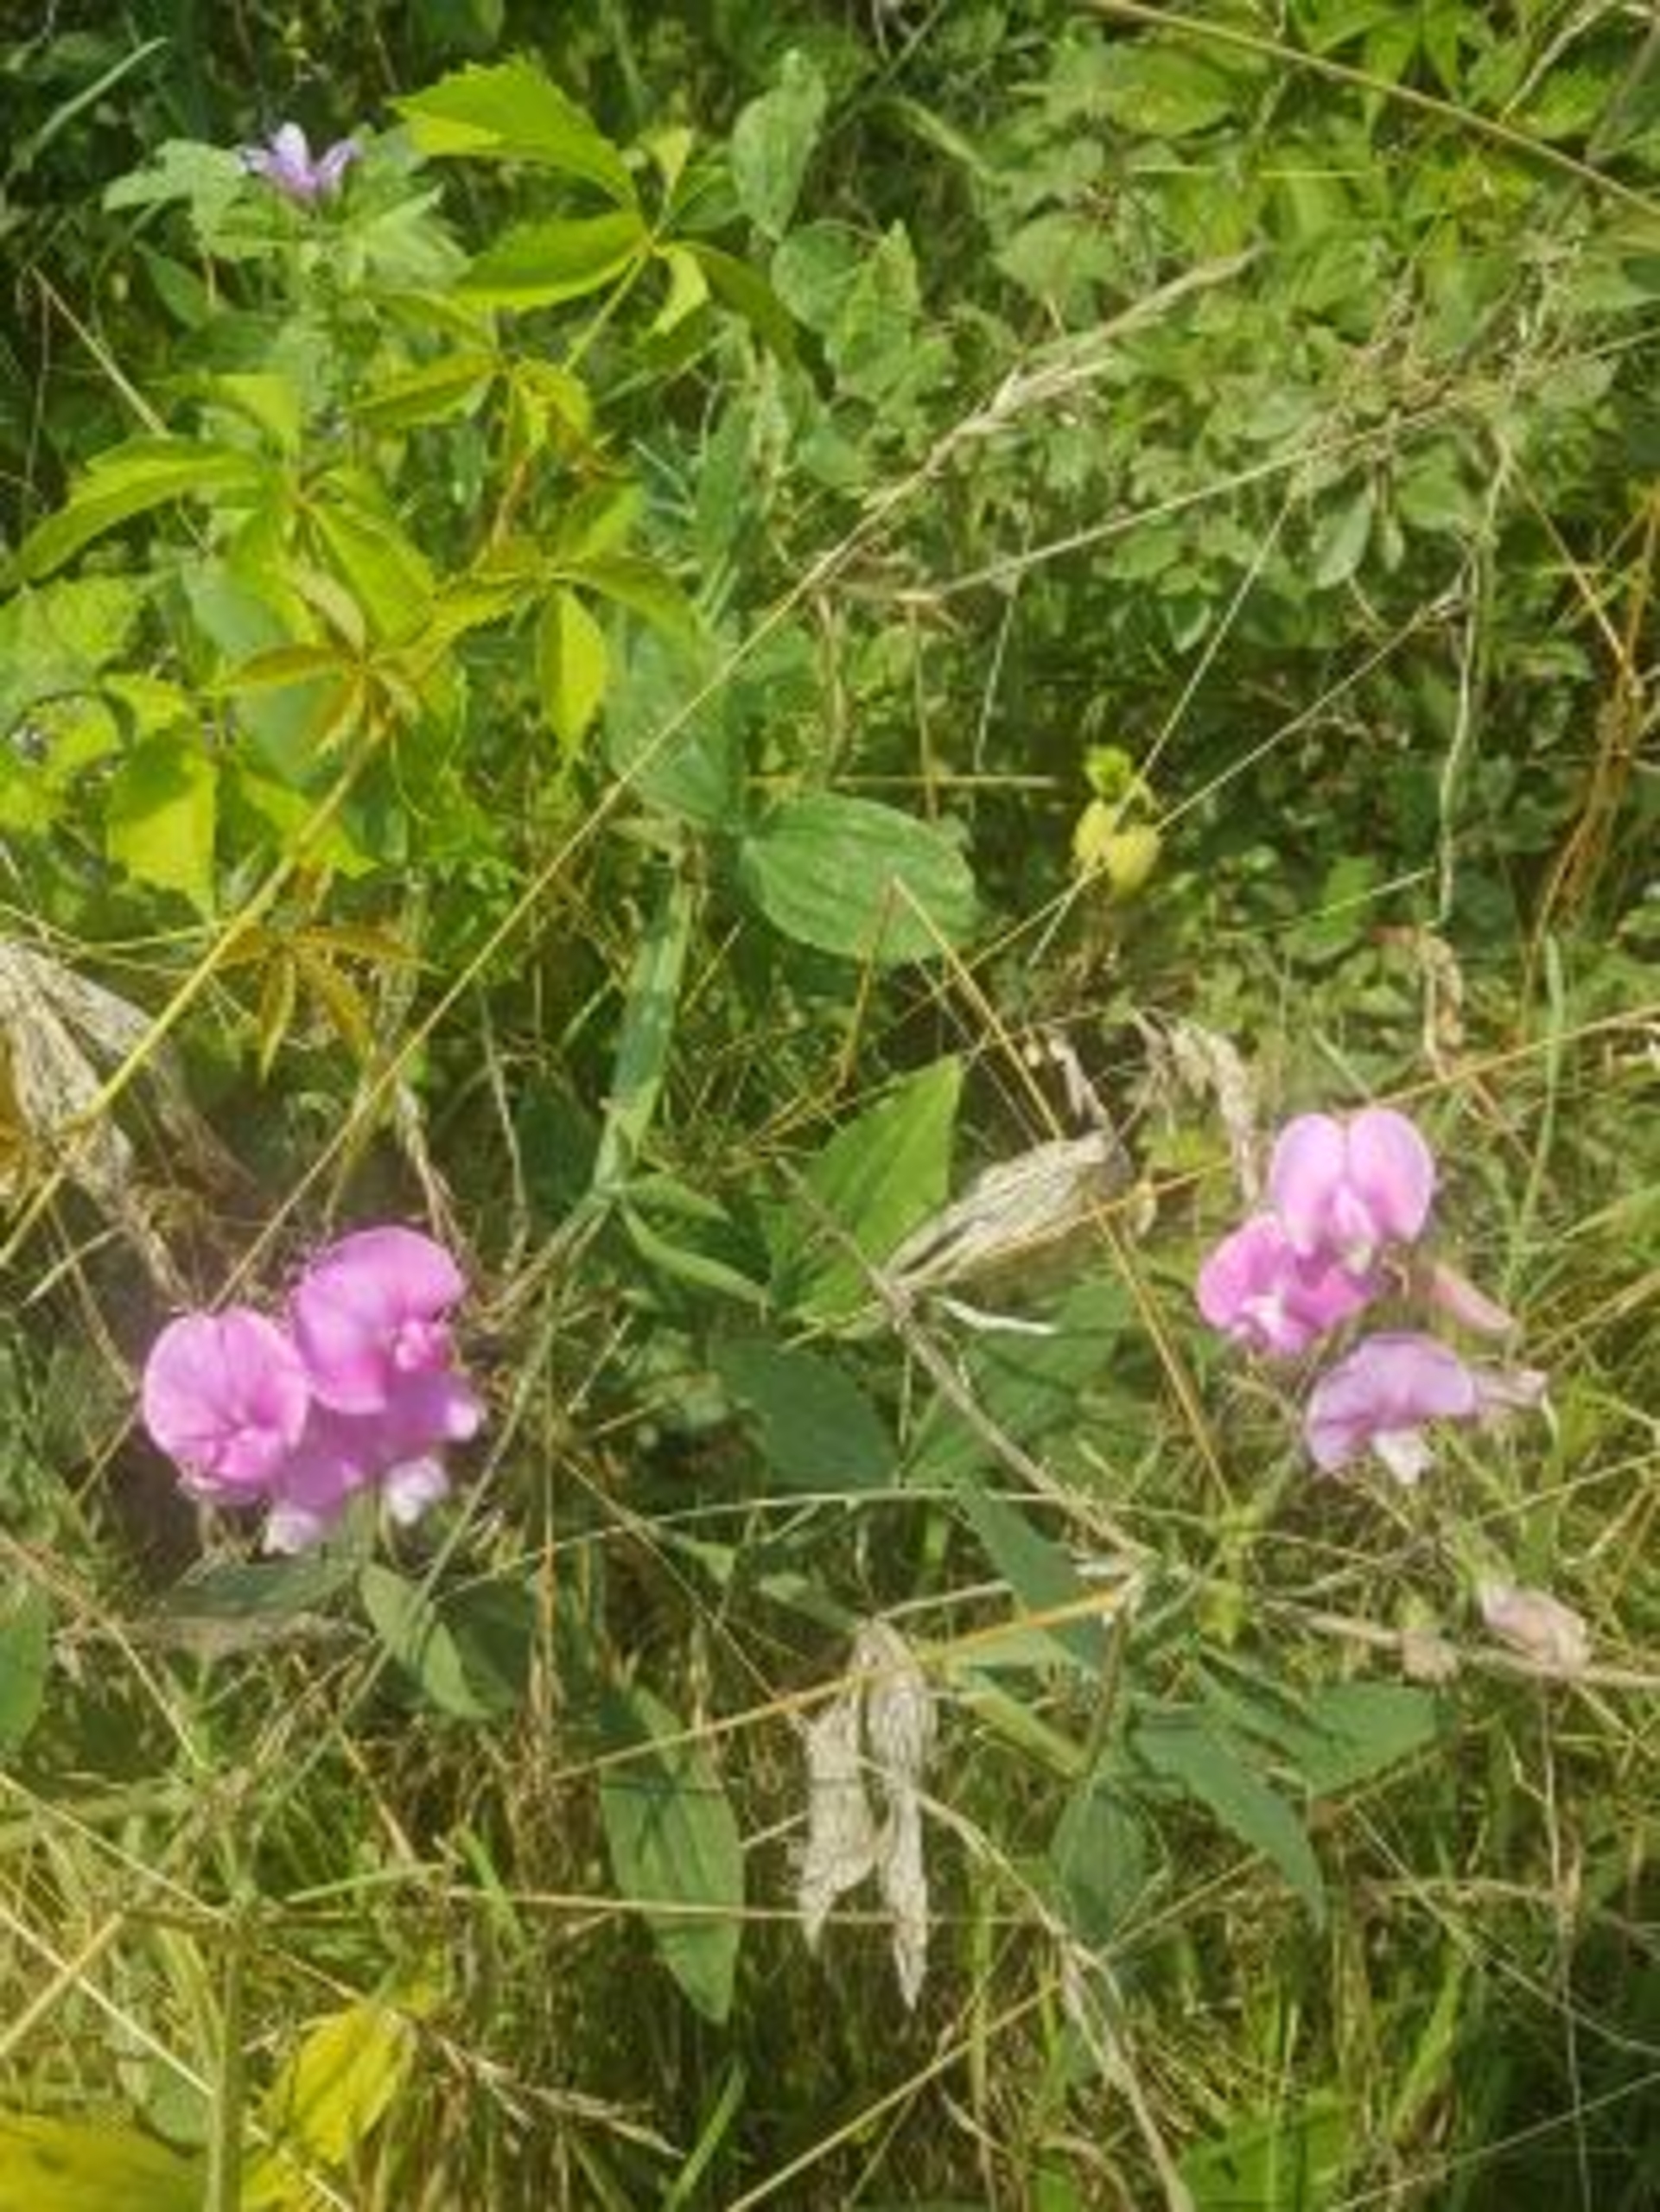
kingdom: Plantae
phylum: Tracheophyta
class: Magnoliopsida
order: Fabales
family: Fabaceae
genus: Lathyrus
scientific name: Lathyrus latifolius
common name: Flerårig ærteblomst (underart)
